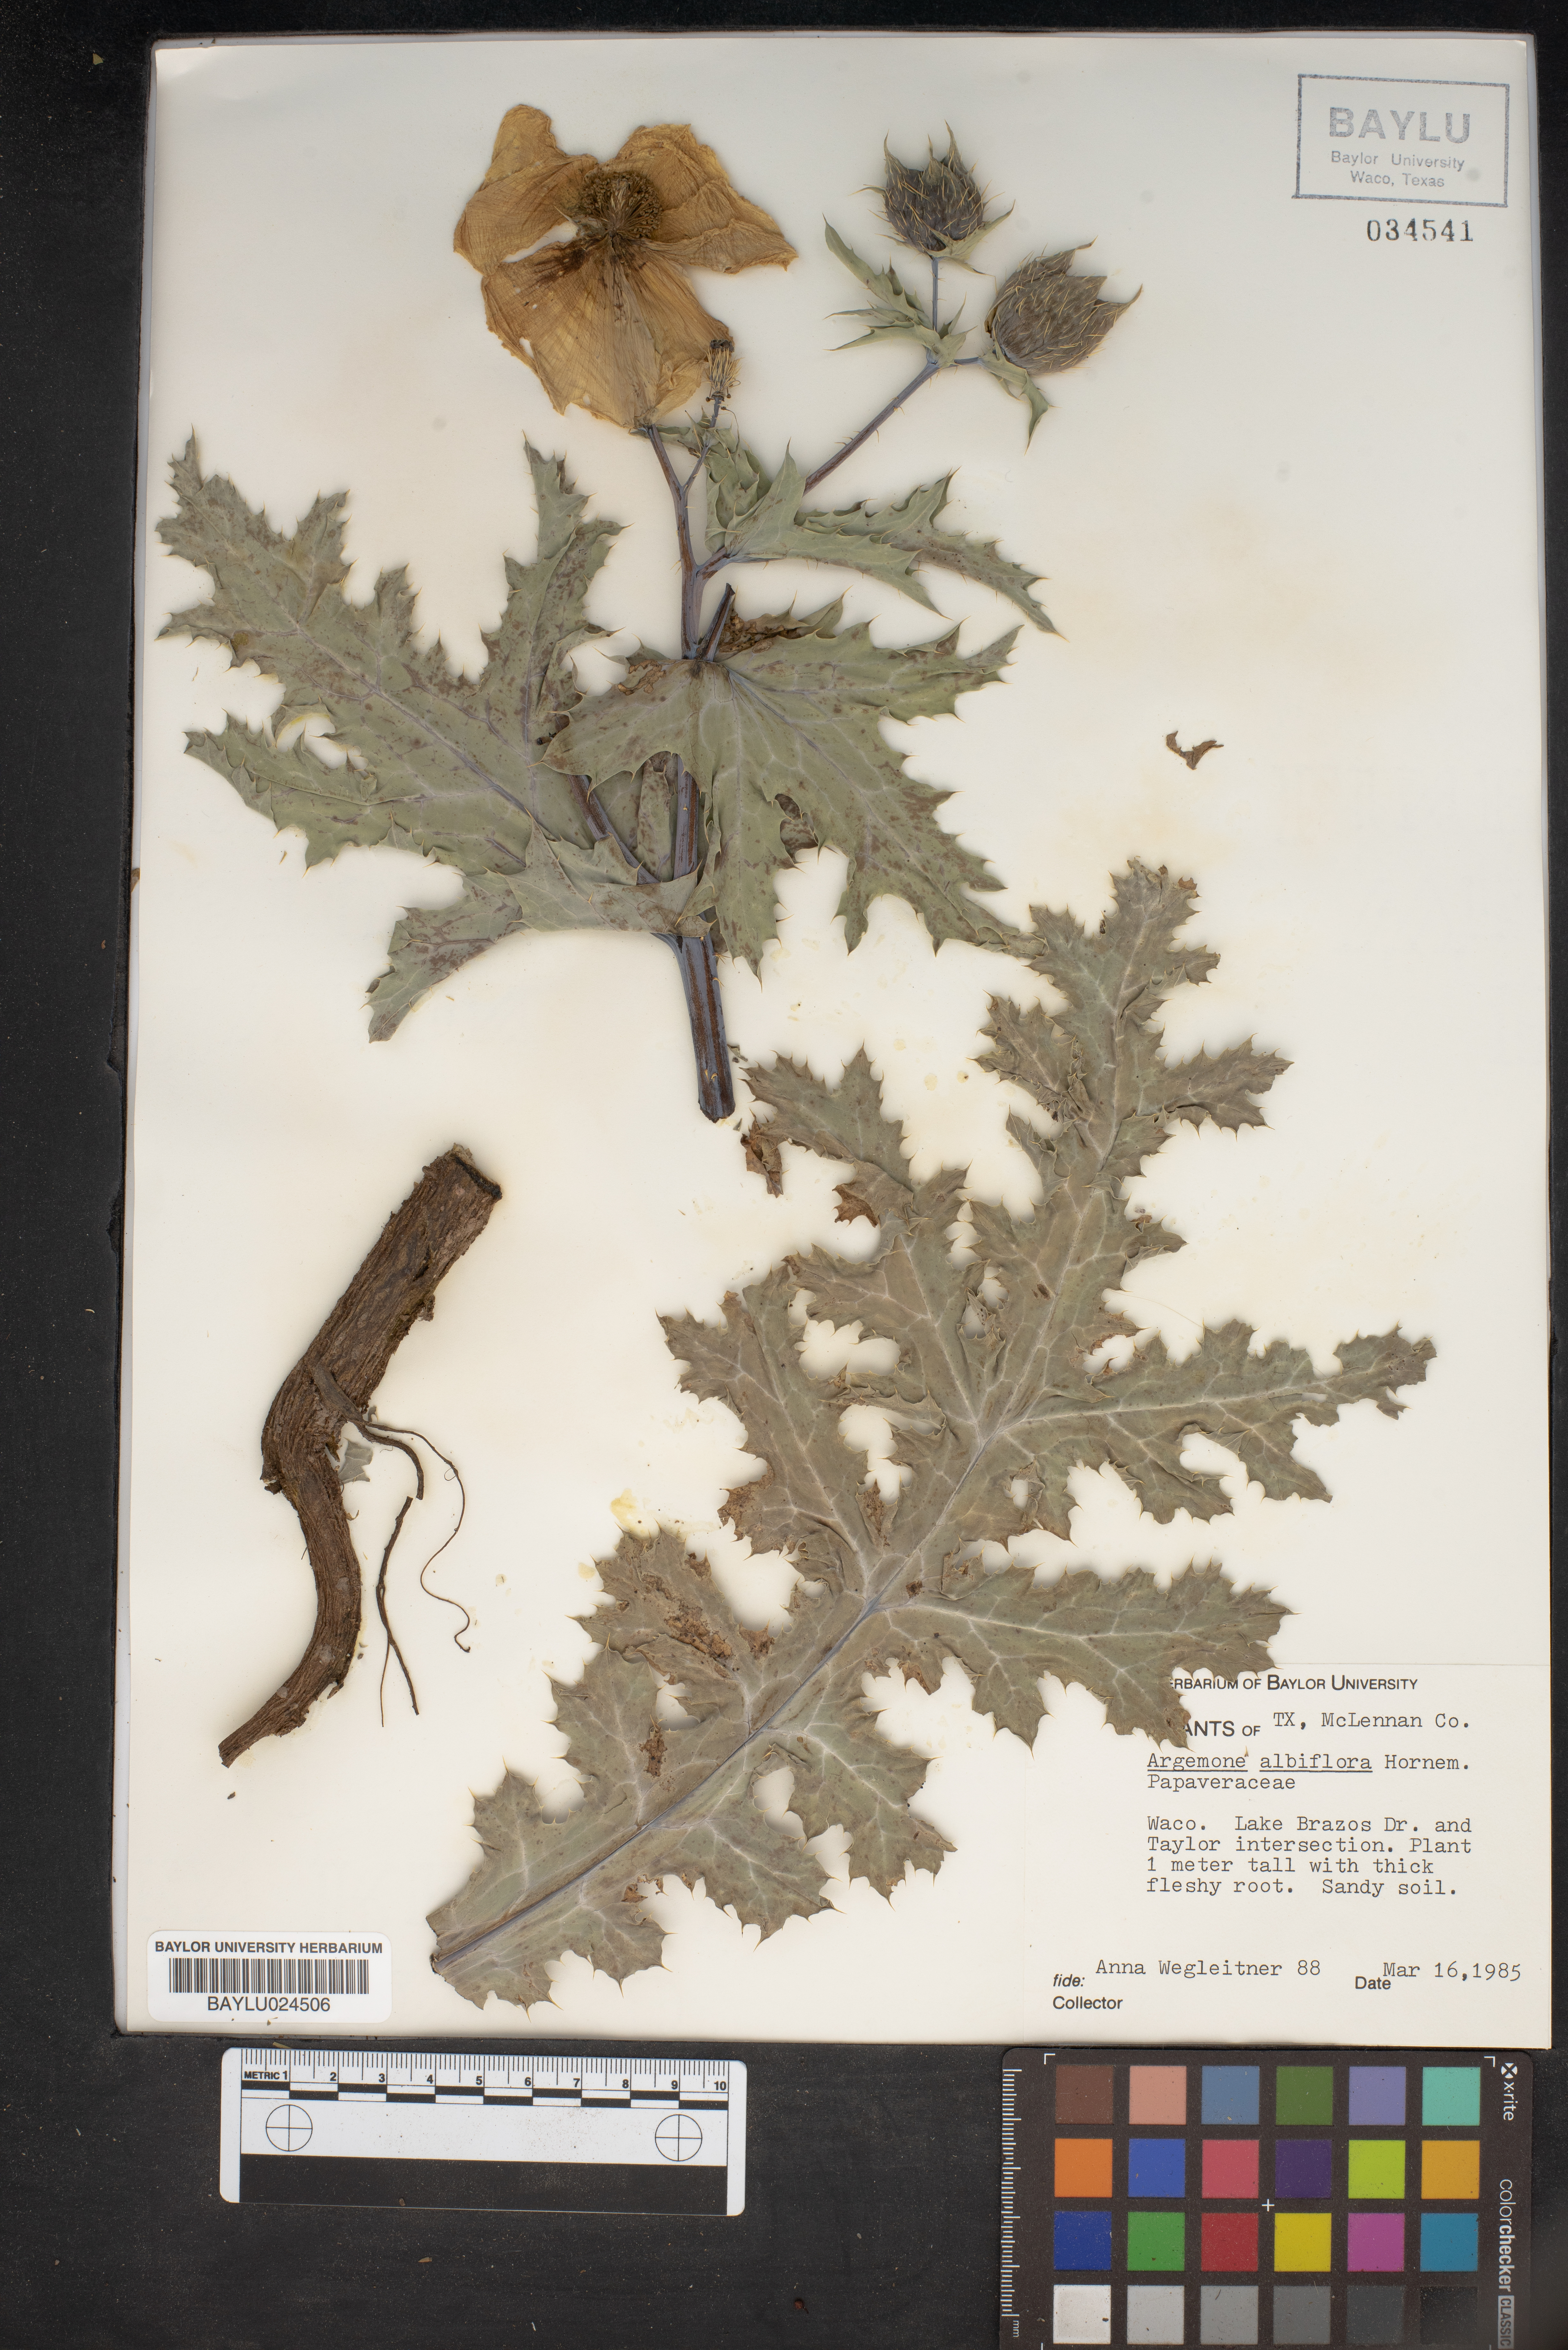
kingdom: Plantae
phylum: Tracheophyta
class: Magnoliopsida
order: Ranunculales
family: Papaveraceae
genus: Argemone
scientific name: Argemone albiflora
